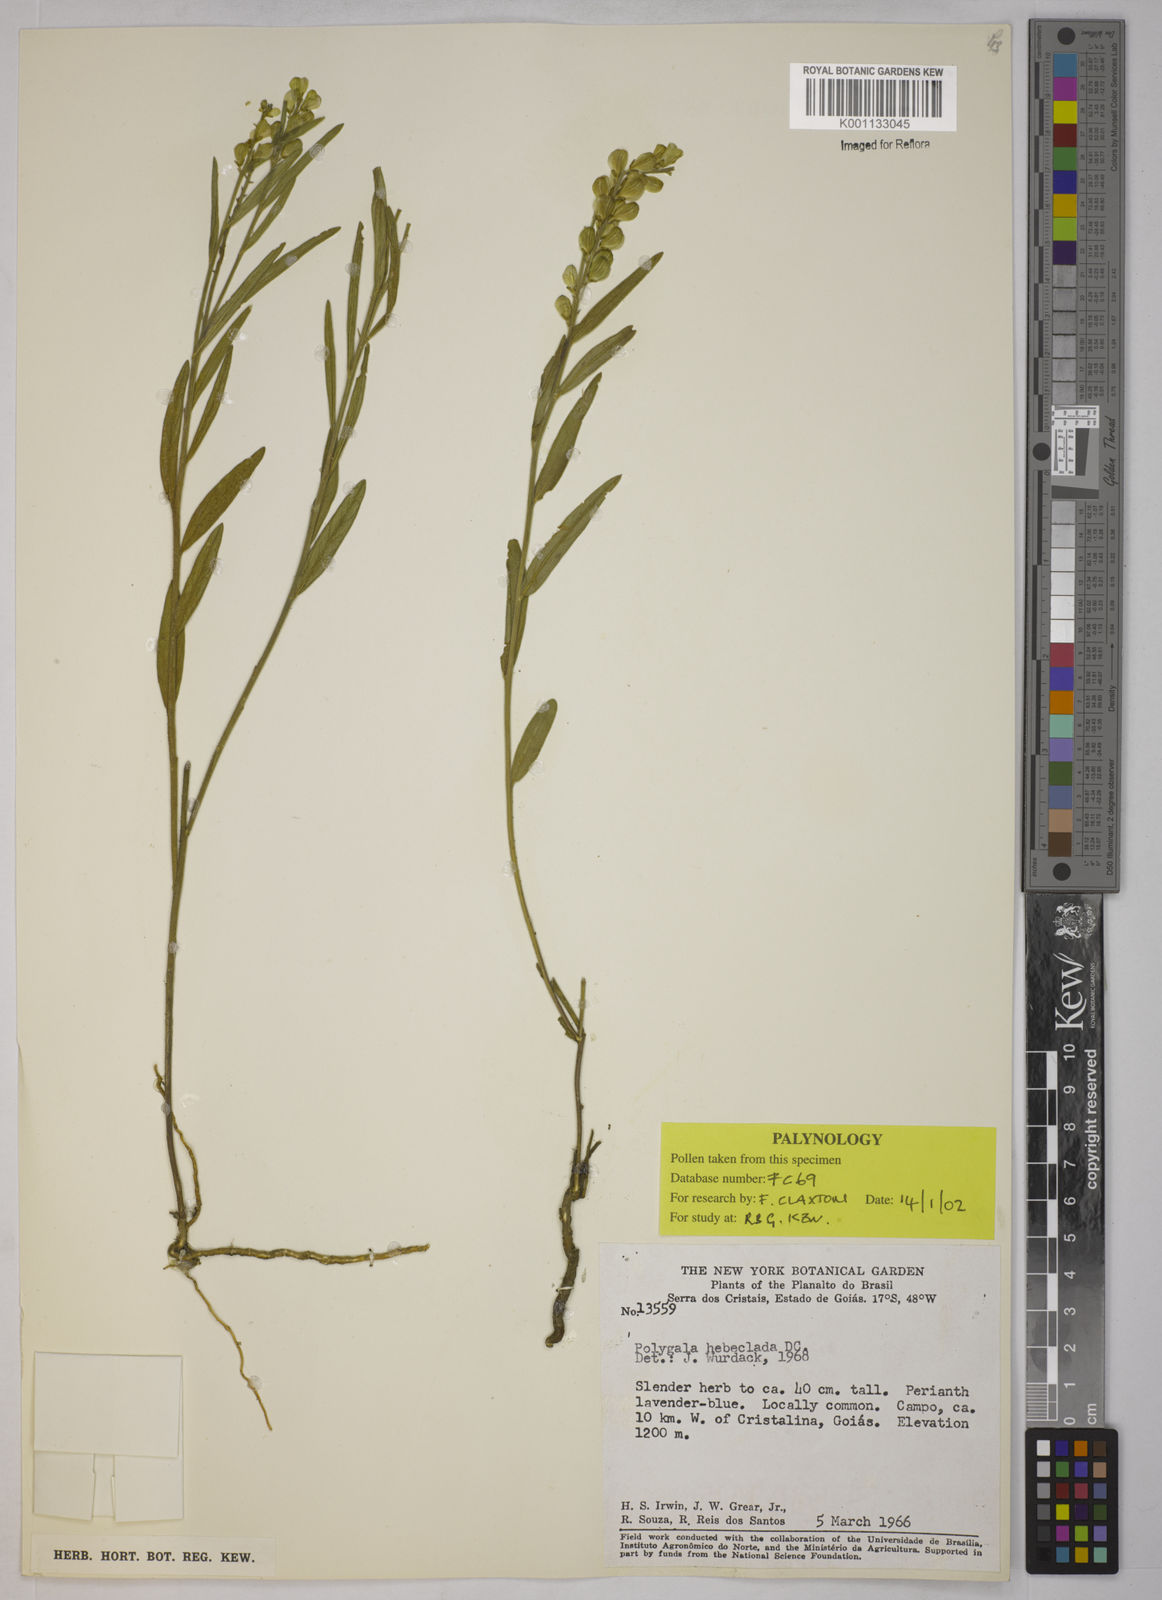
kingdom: Plantae
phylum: Tracheophyta
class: Magnoliopsida
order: Fabales
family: Polygalaceae
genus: Asemeia
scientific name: Asemeia hebeclada
